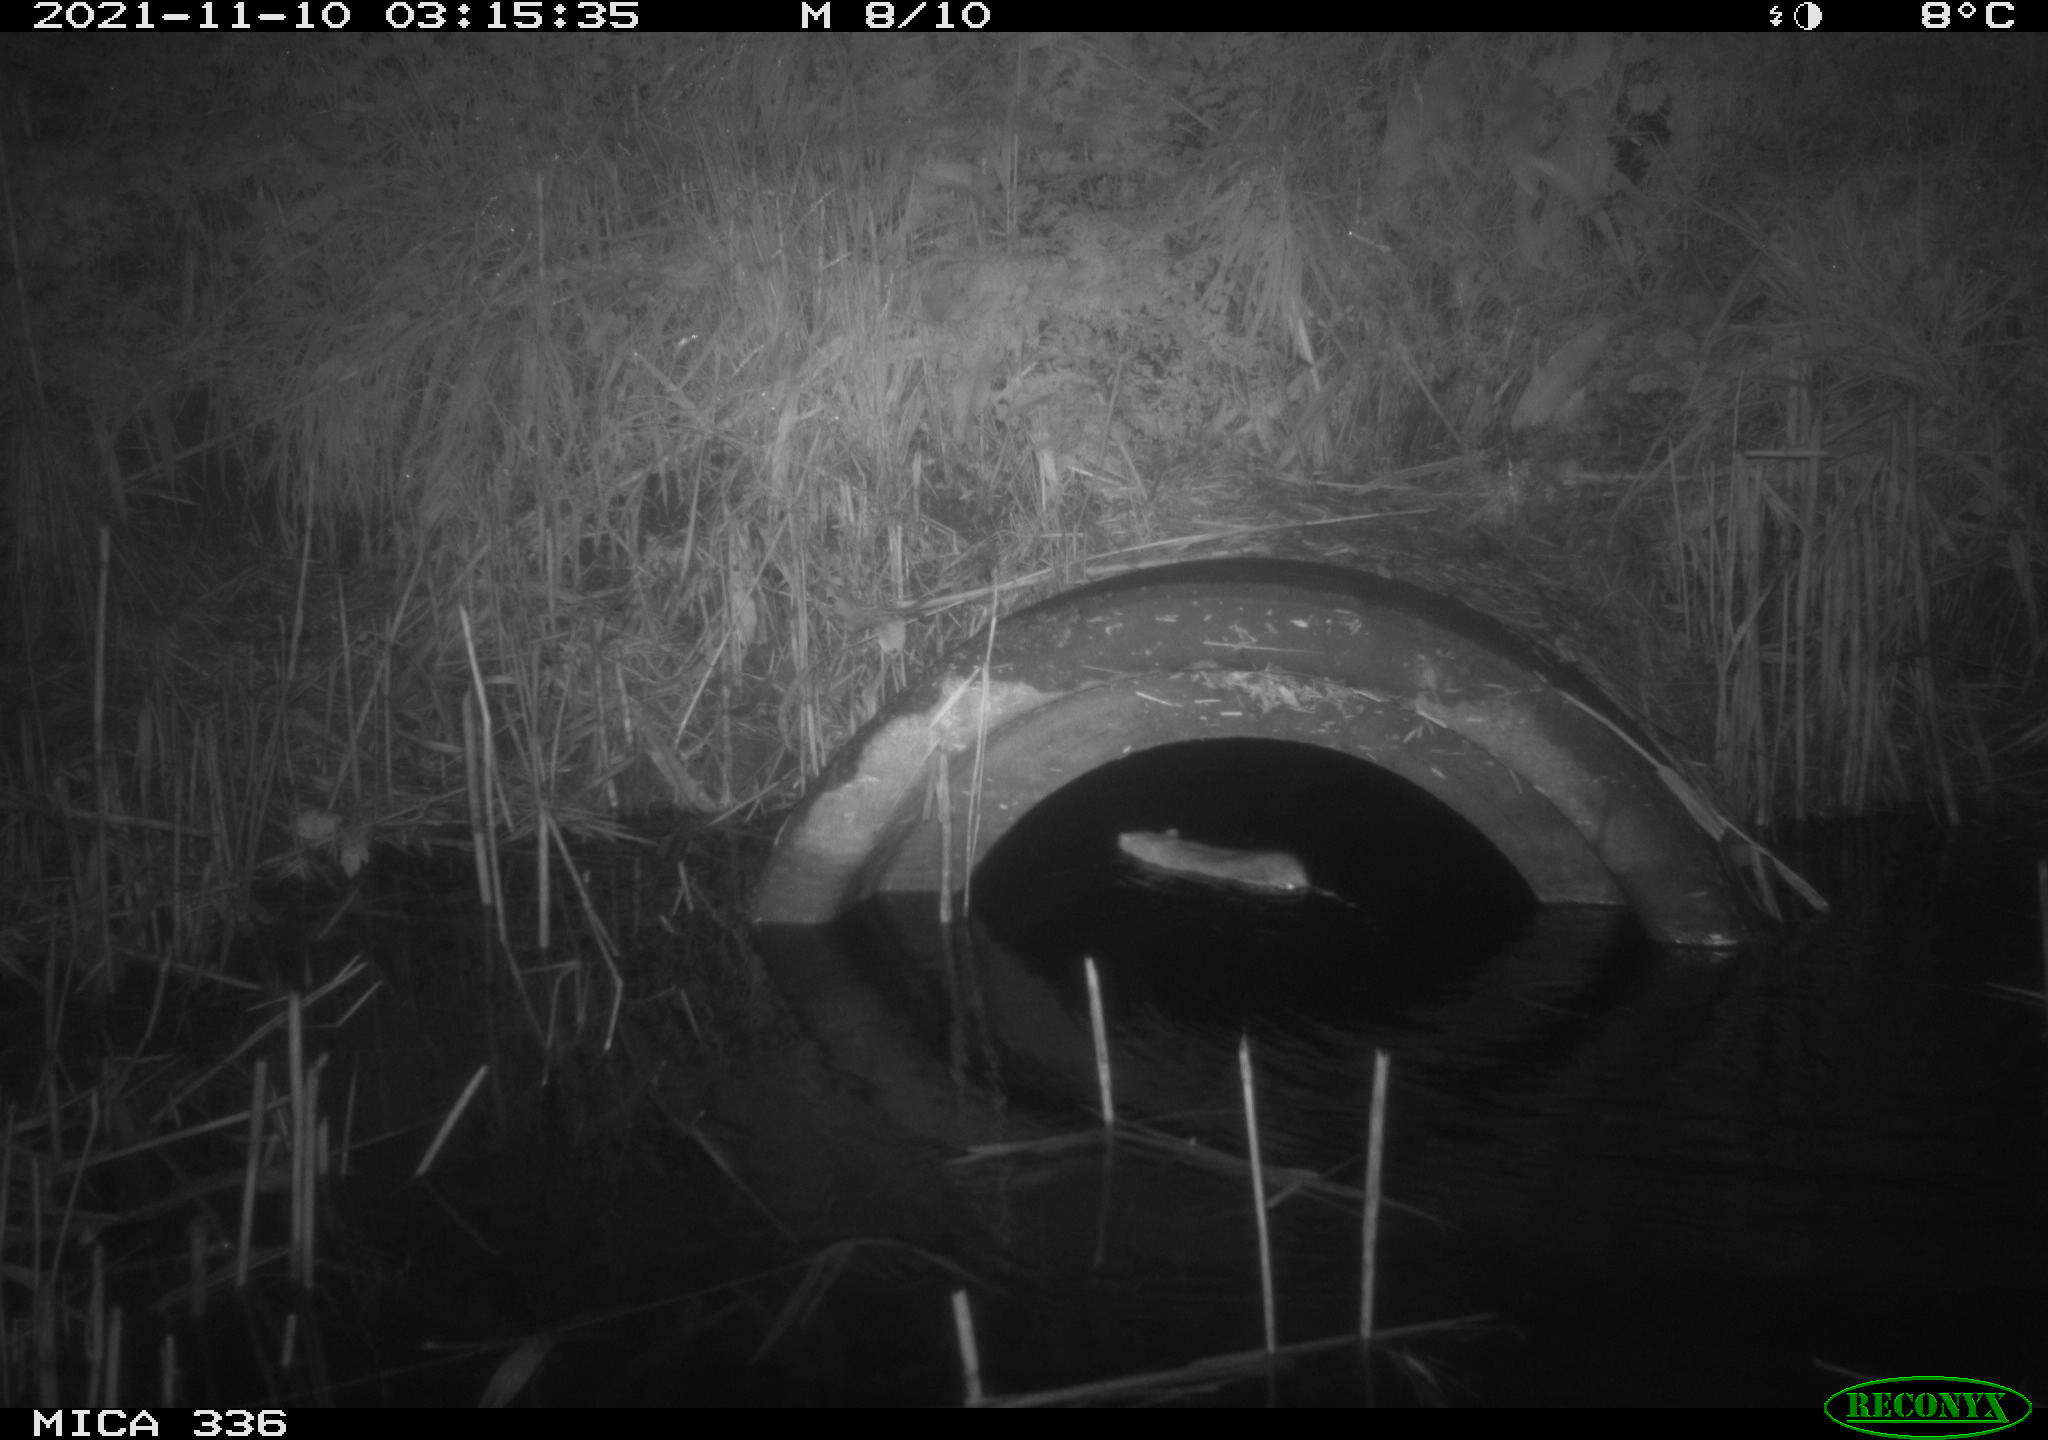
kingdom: Animalia
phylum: Chordata
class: Mammalia
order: Rodentia
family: Muridae
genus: Rattus
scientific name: Rattus norvegicus
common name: Brown rat
